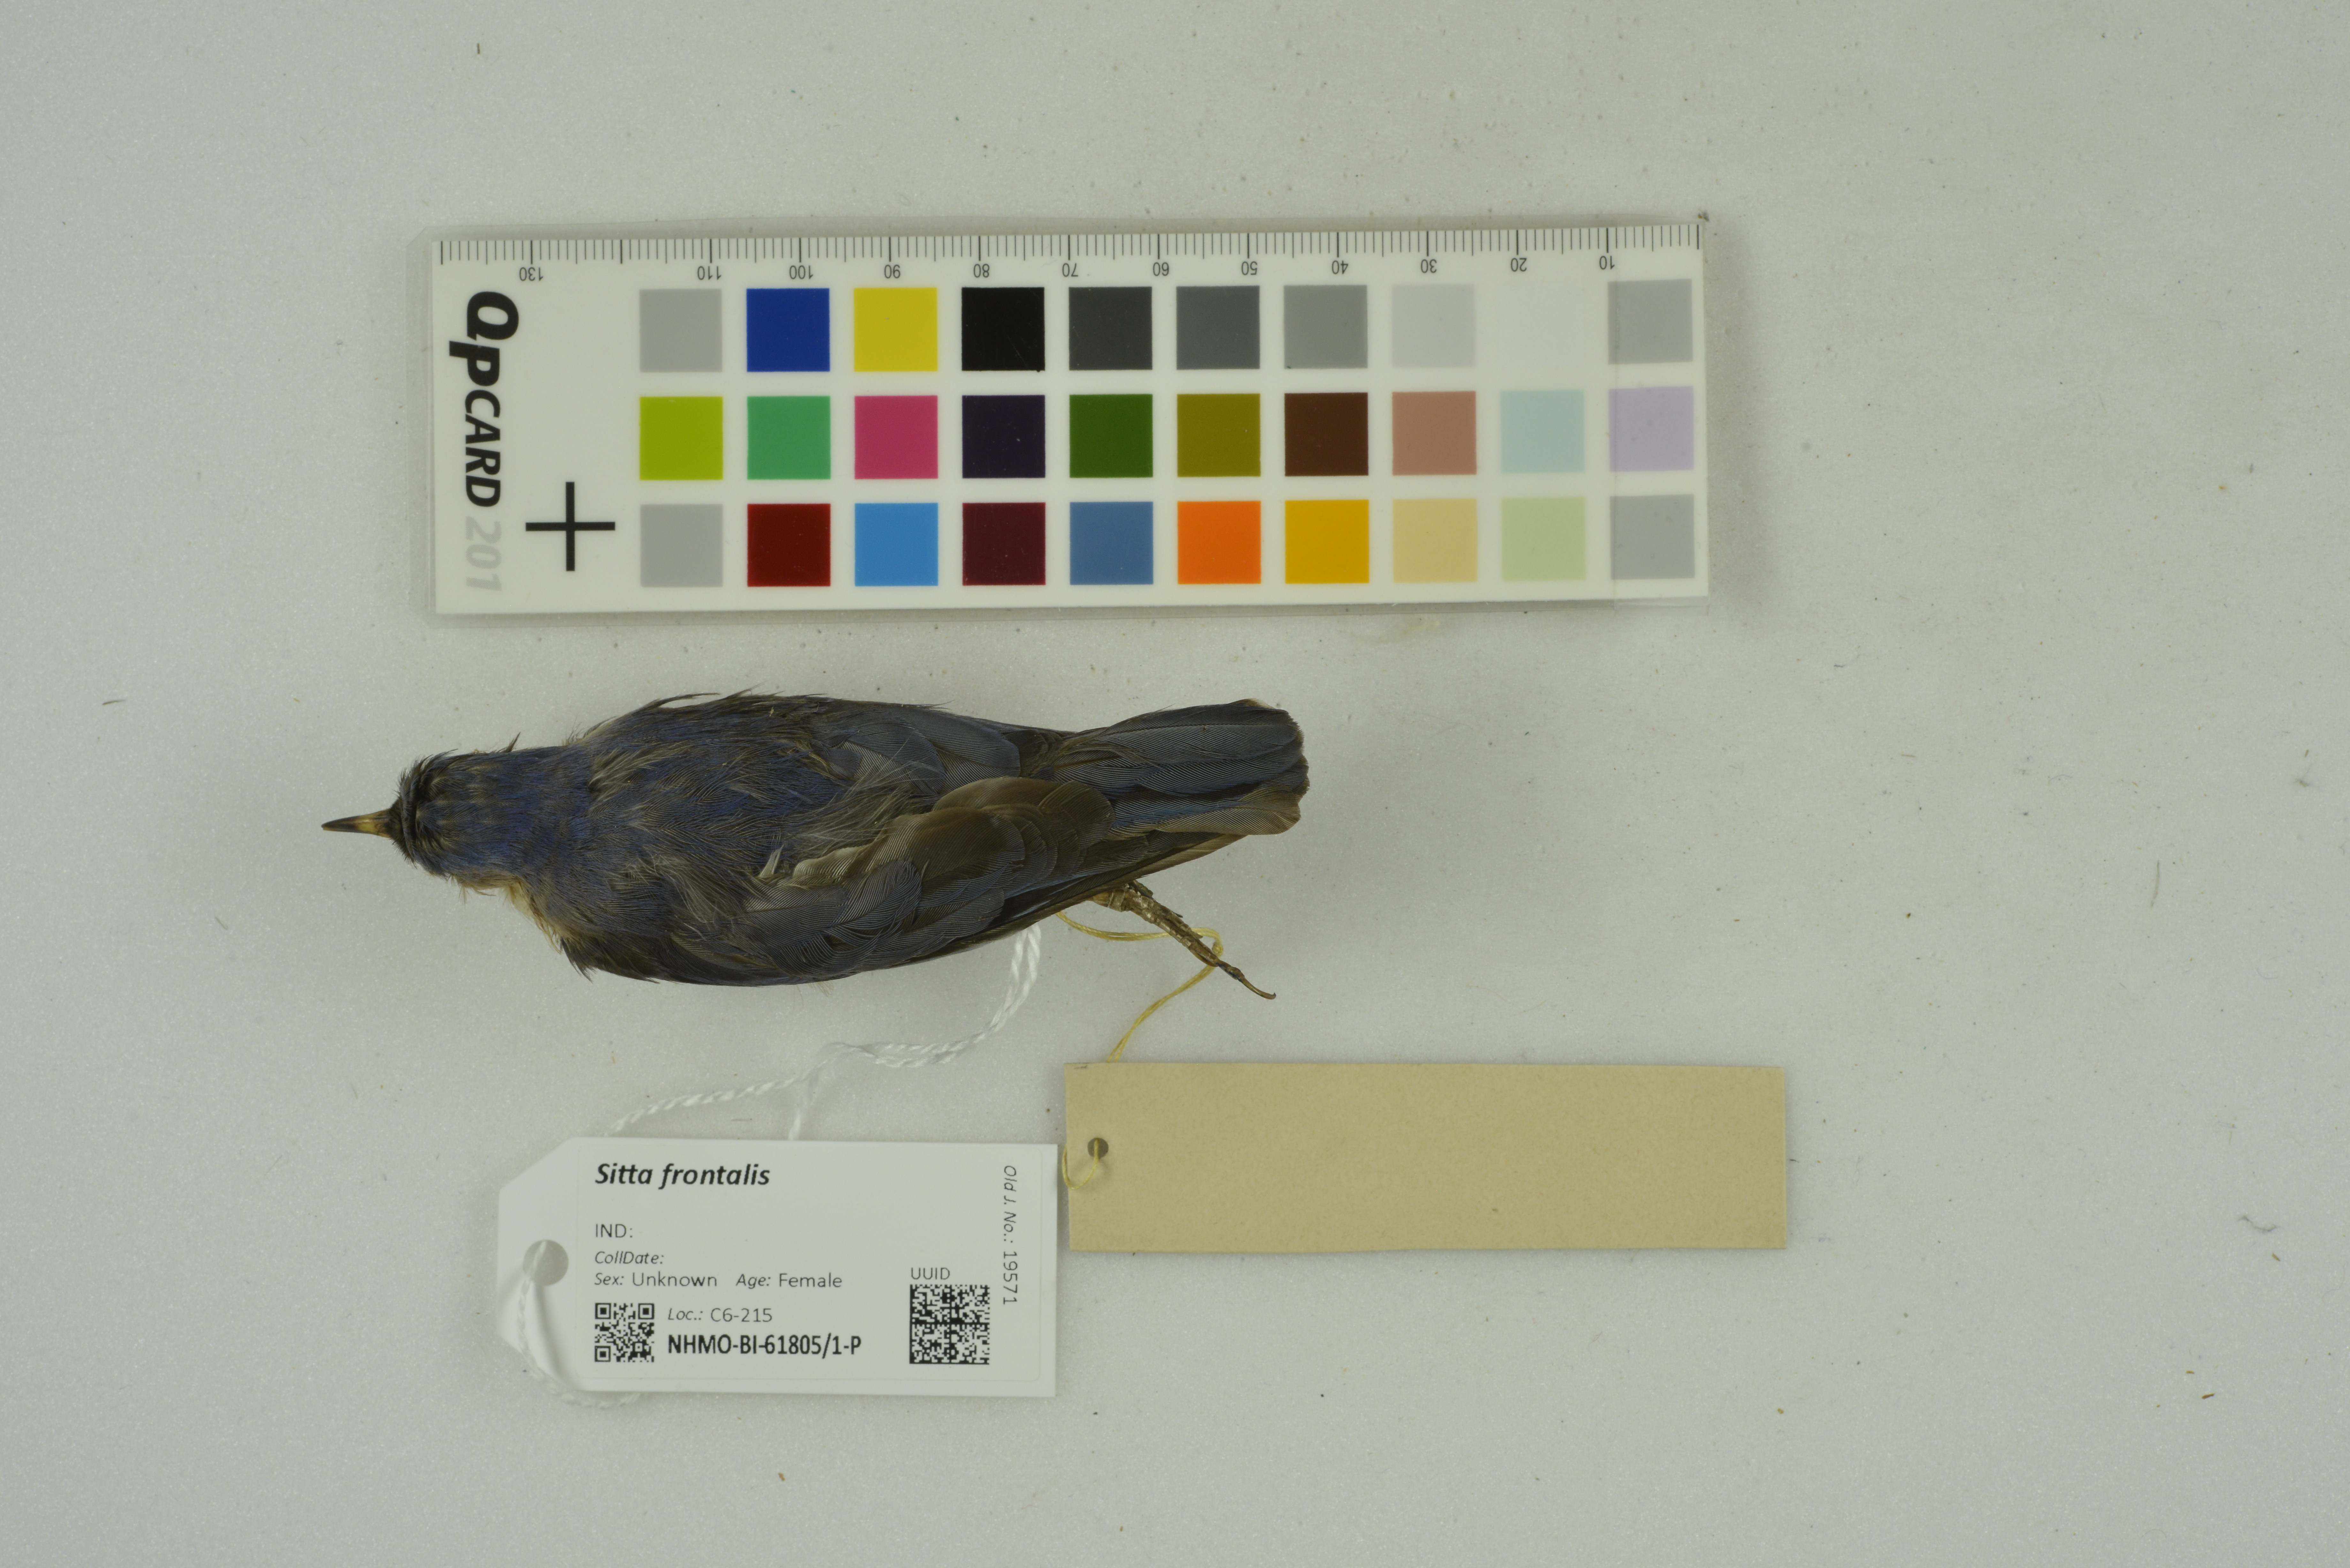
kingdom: Animalia
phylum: Chordata
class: Aves
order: Passeriformes
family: Sittidae
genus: Sitta
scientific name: Sitta frontalis
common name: Velvet-fronted nuthatch
